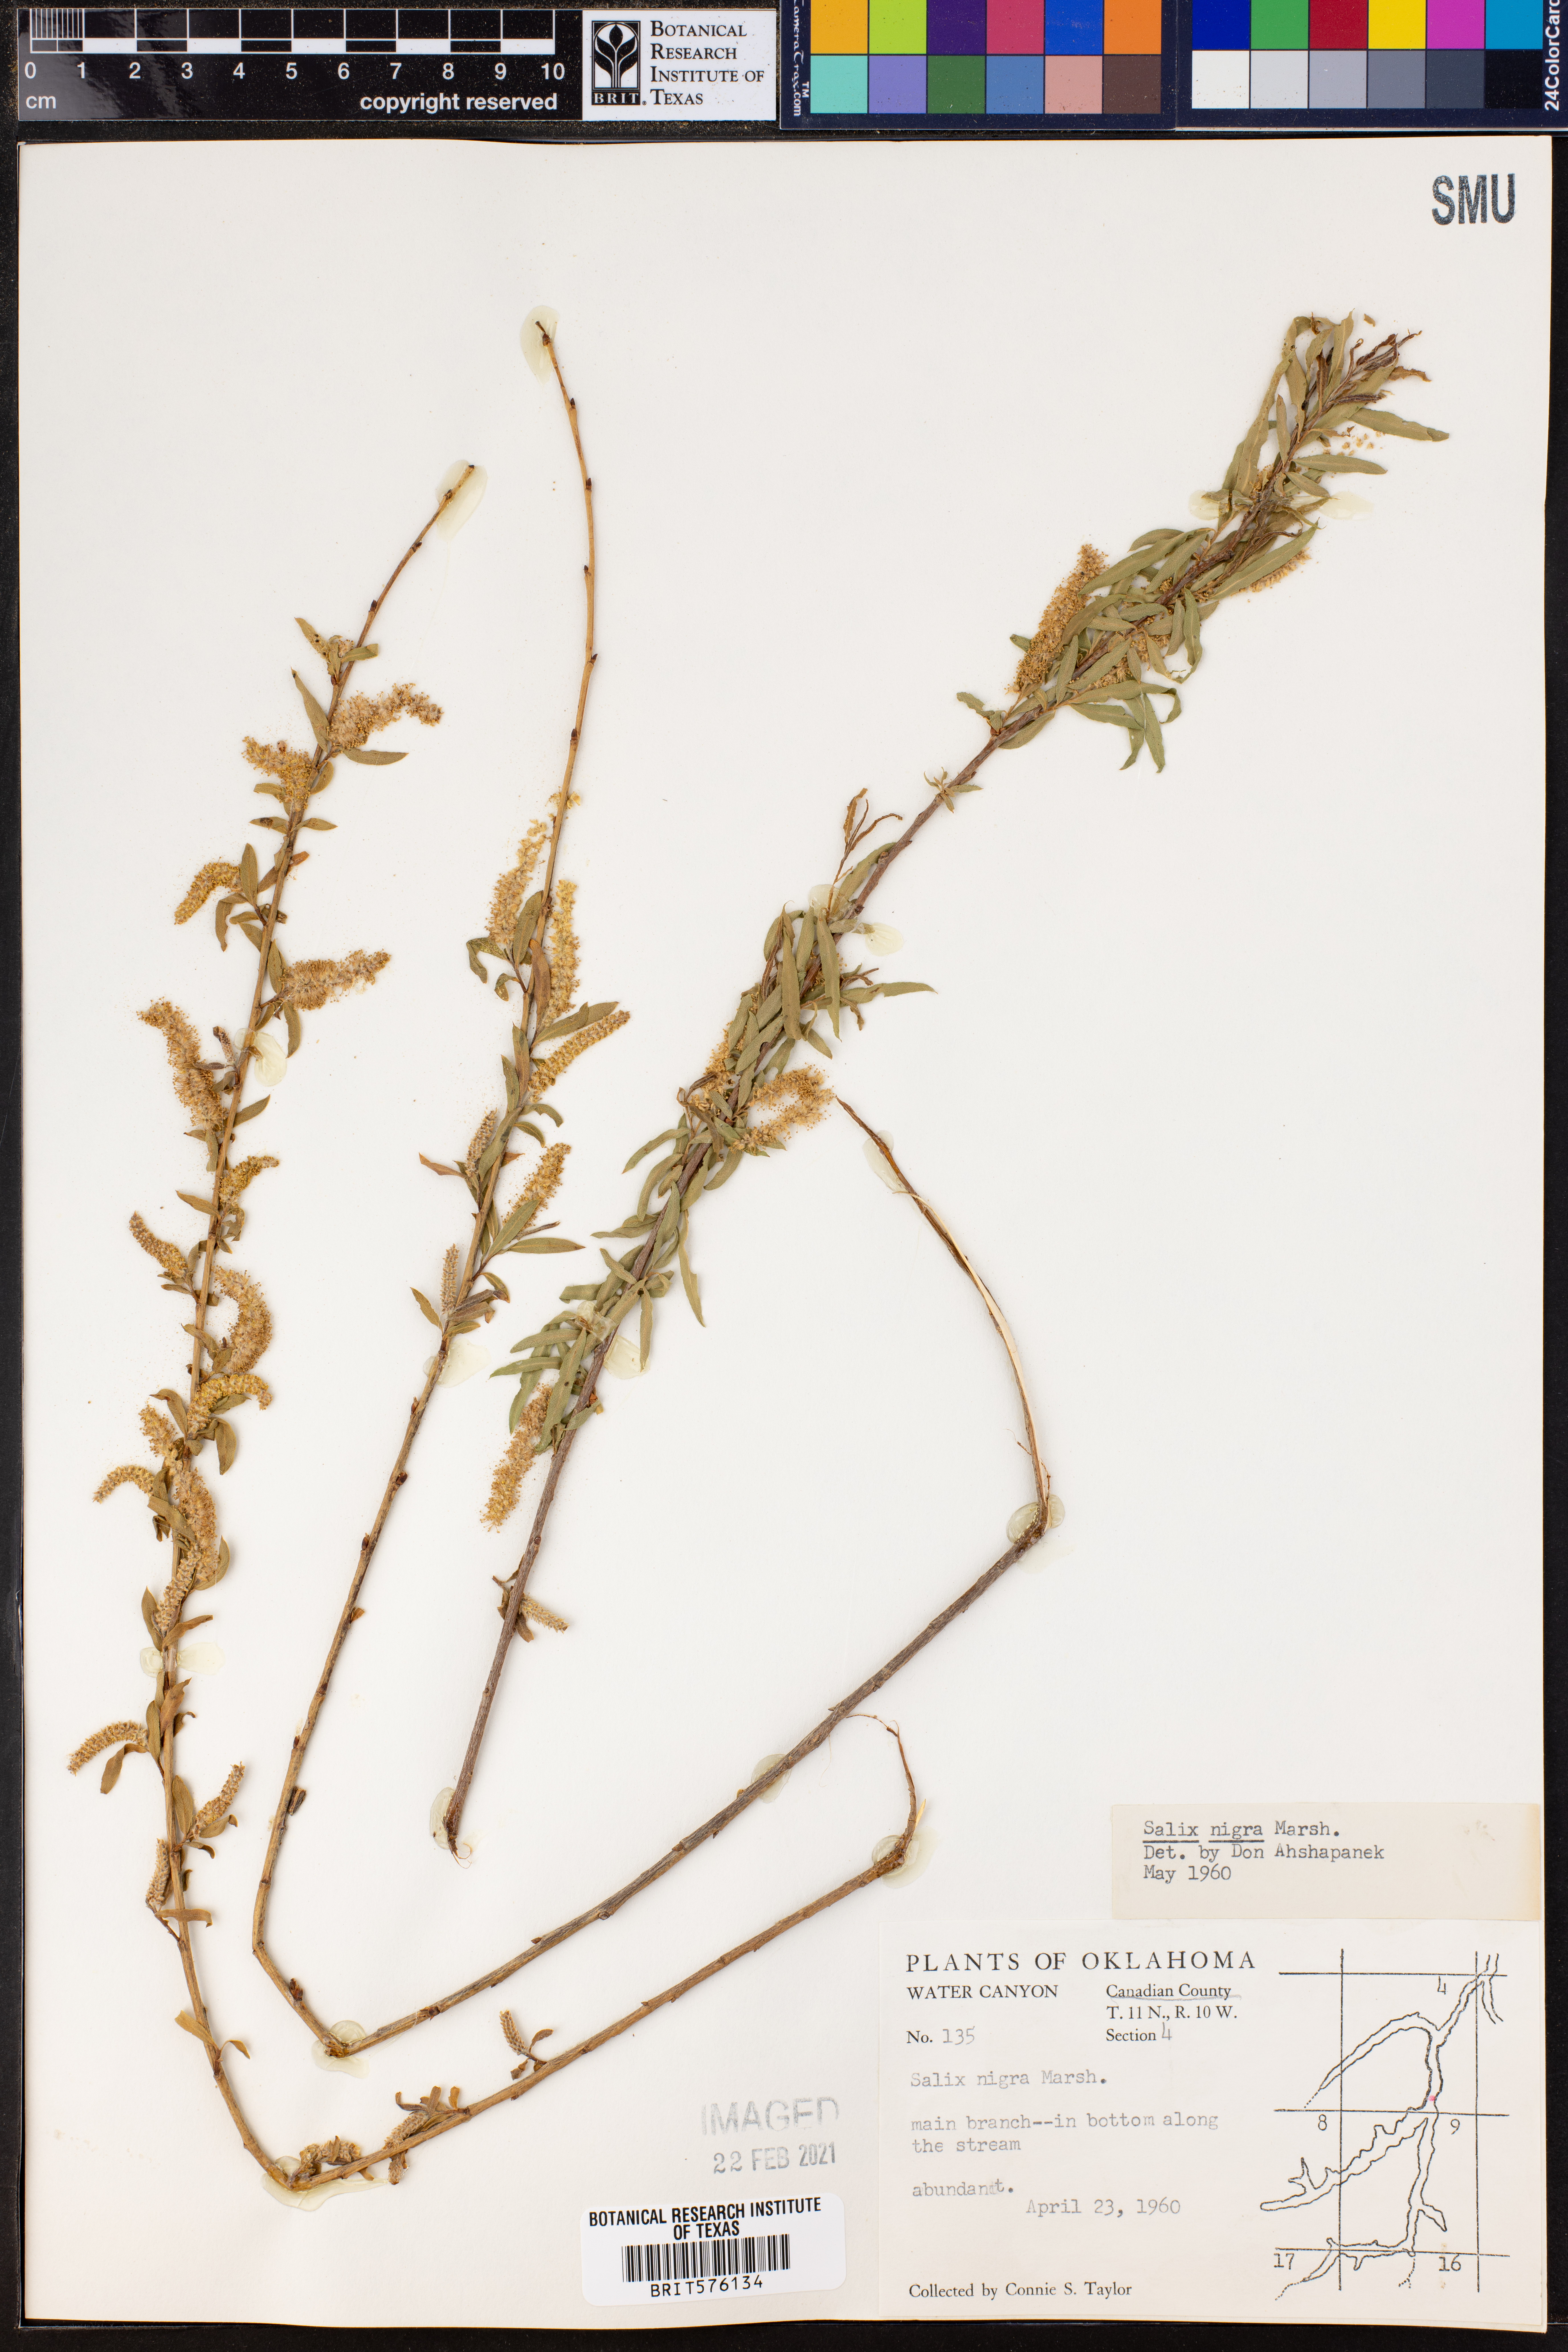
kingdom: Plantae
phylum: Tracheophyta
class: Magnoliopsida
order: Malpighiales
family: Salicaceae
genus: Salix
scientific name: Salix nigra
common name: Black willow
